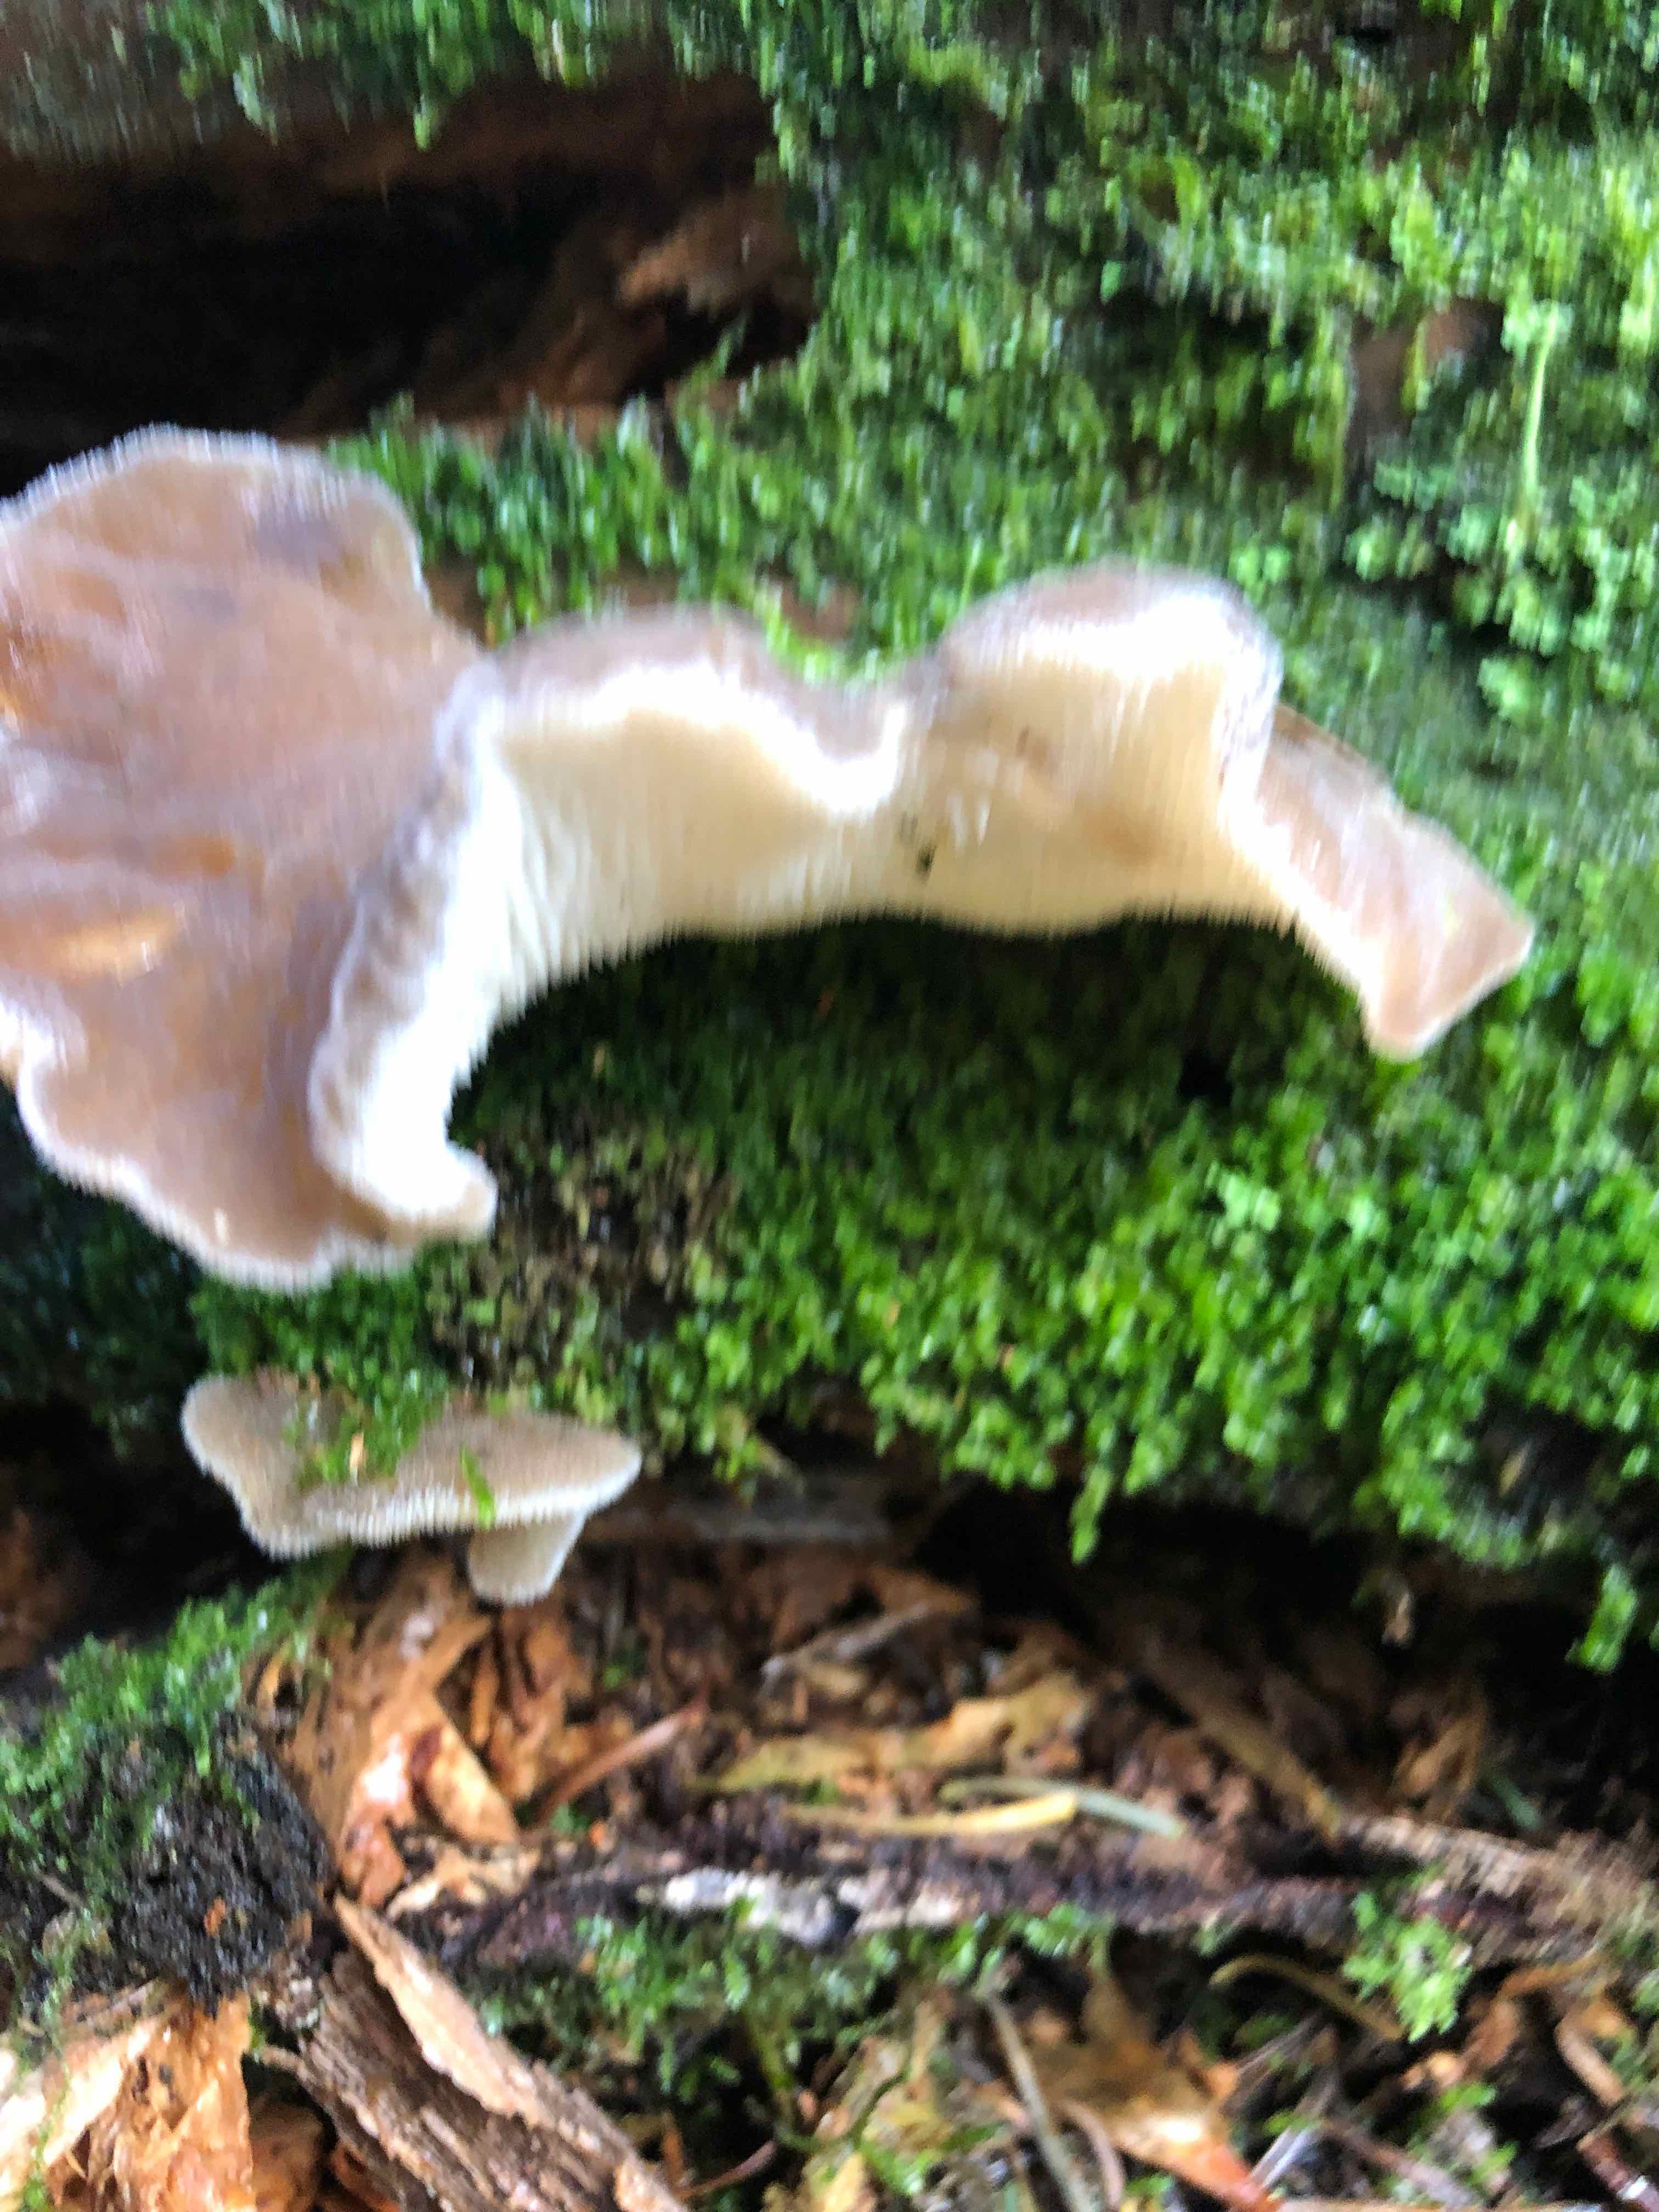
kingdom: Fungi
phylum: Basidiomycota
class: Agaricomycetes
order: Auriculariales
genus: Pseudohydnum
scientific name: Pseudohydnum gelatinosum
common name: bævretand
